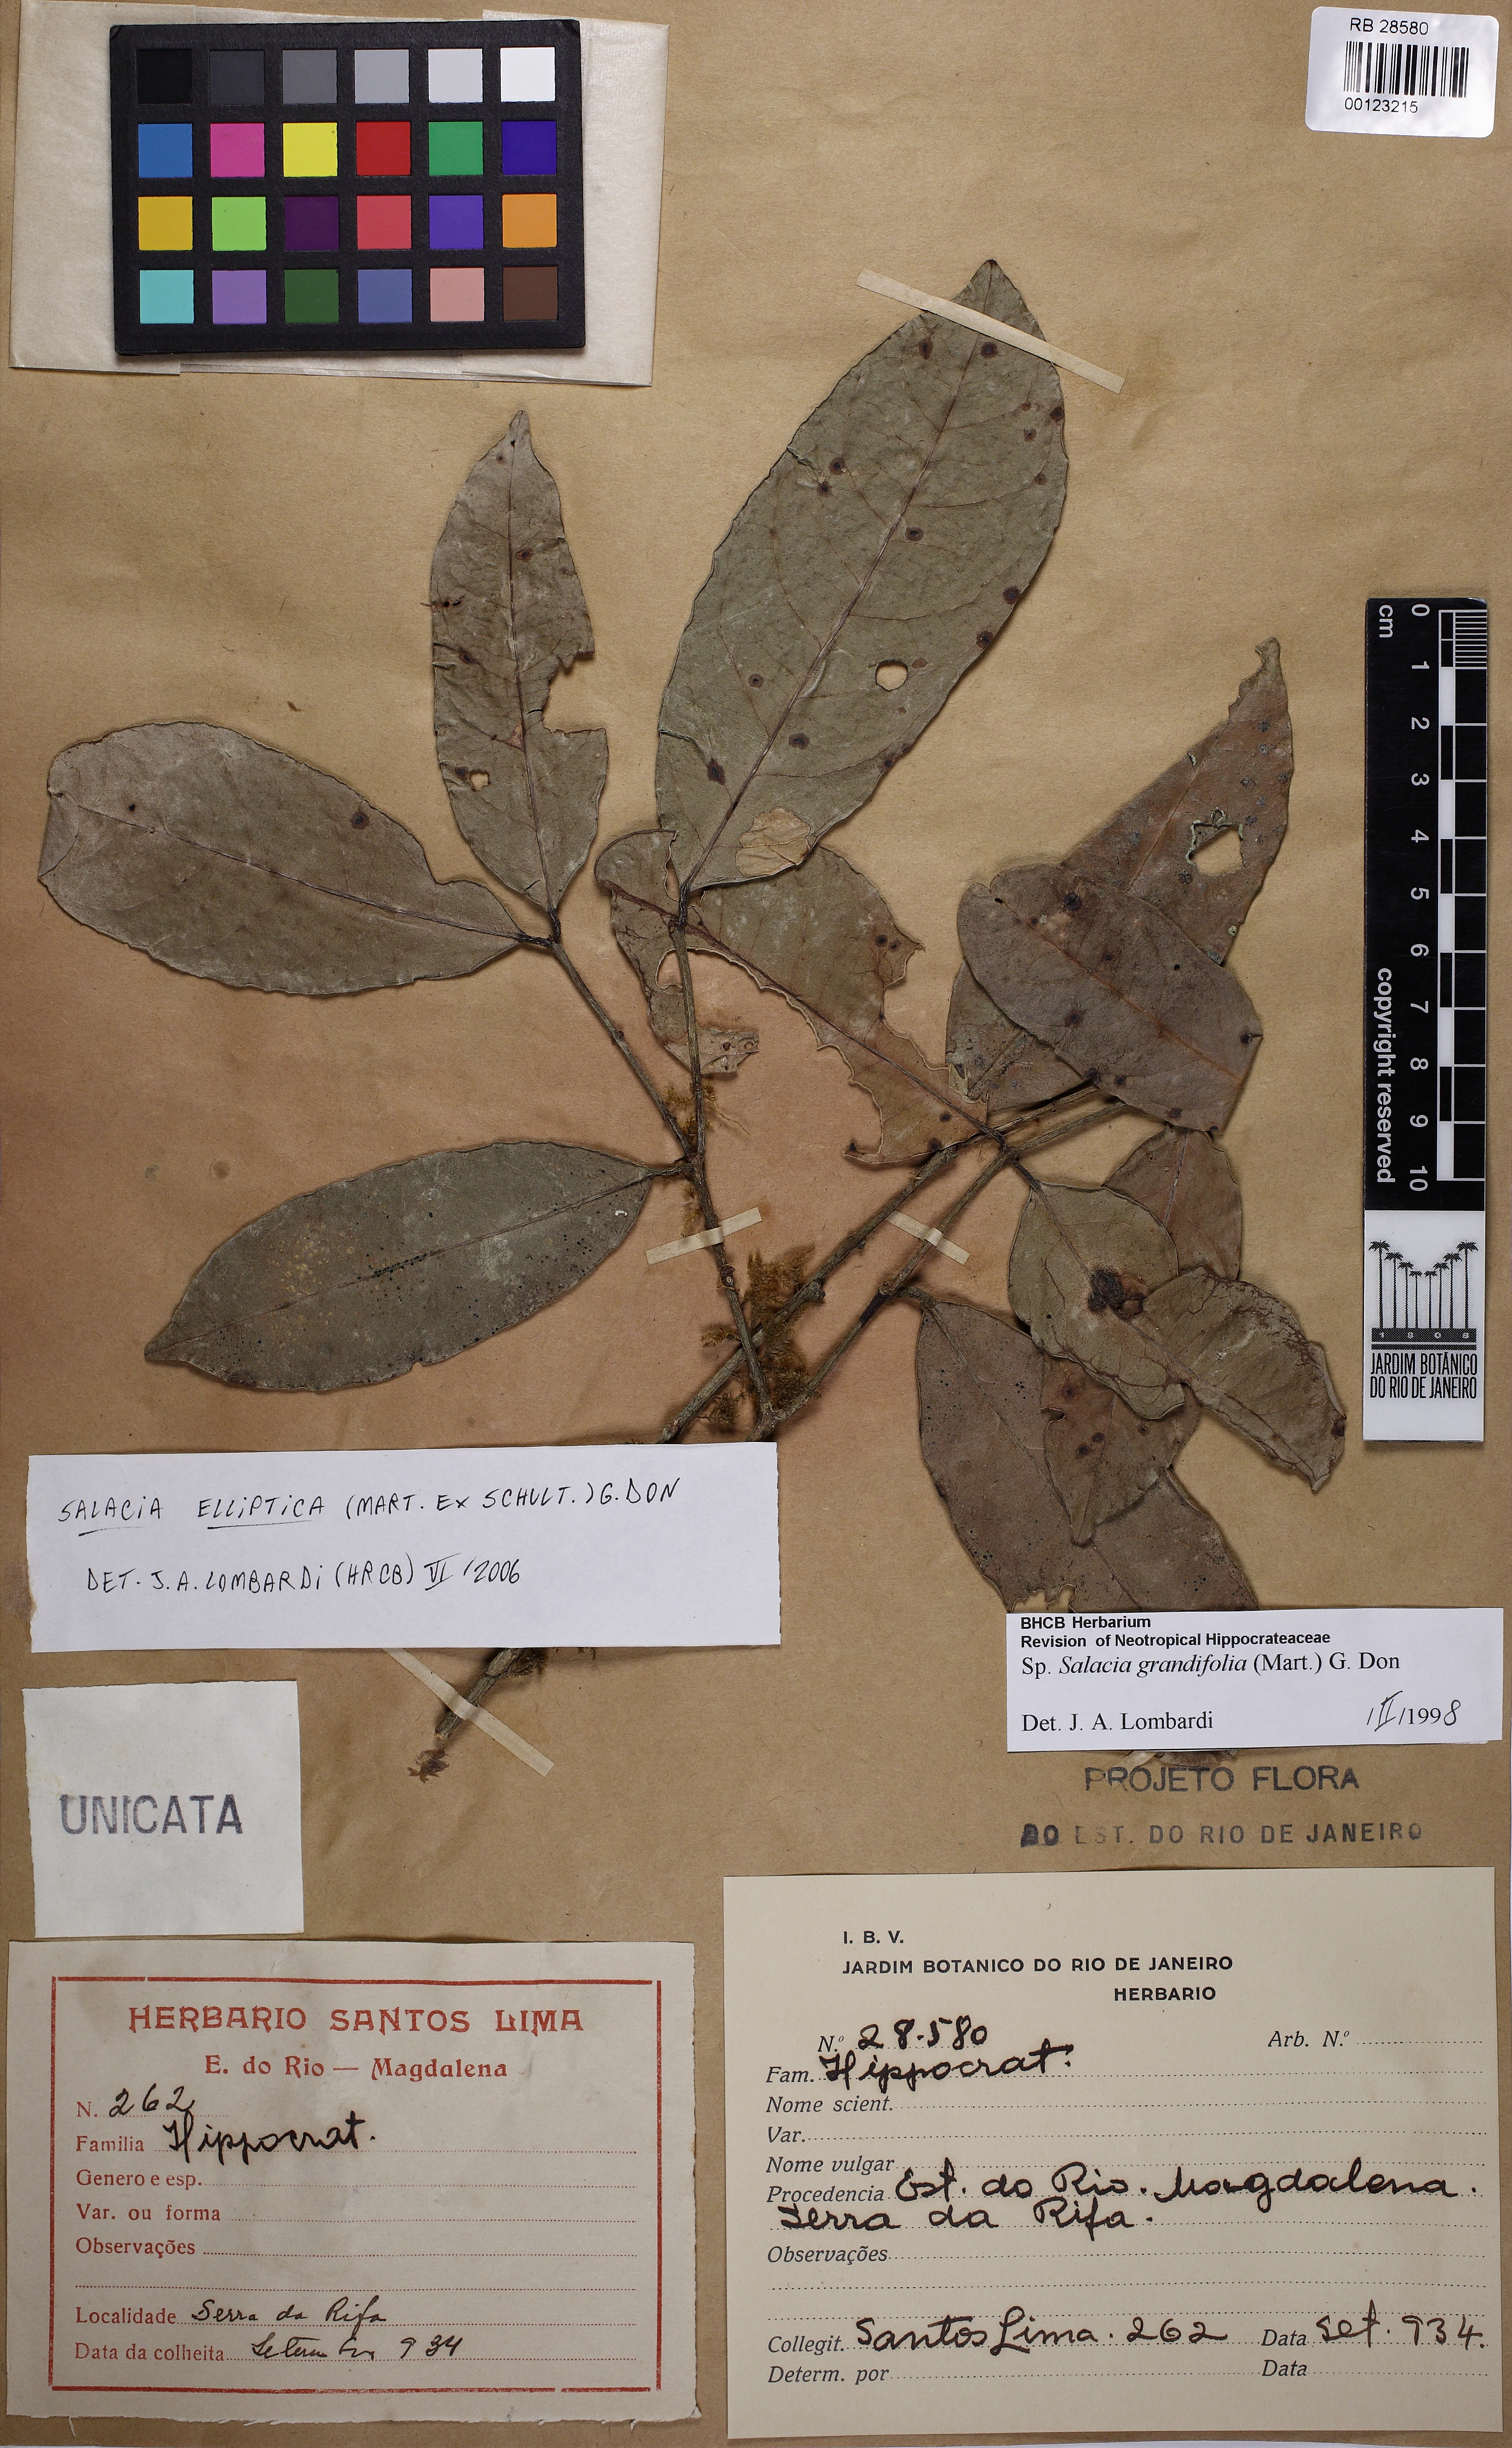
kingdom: Plantae
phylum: Tracheophyta
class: Magnoliopsida
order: Celastrales
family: Celastraceae
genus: Salacia
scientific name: Salacia elliptica
